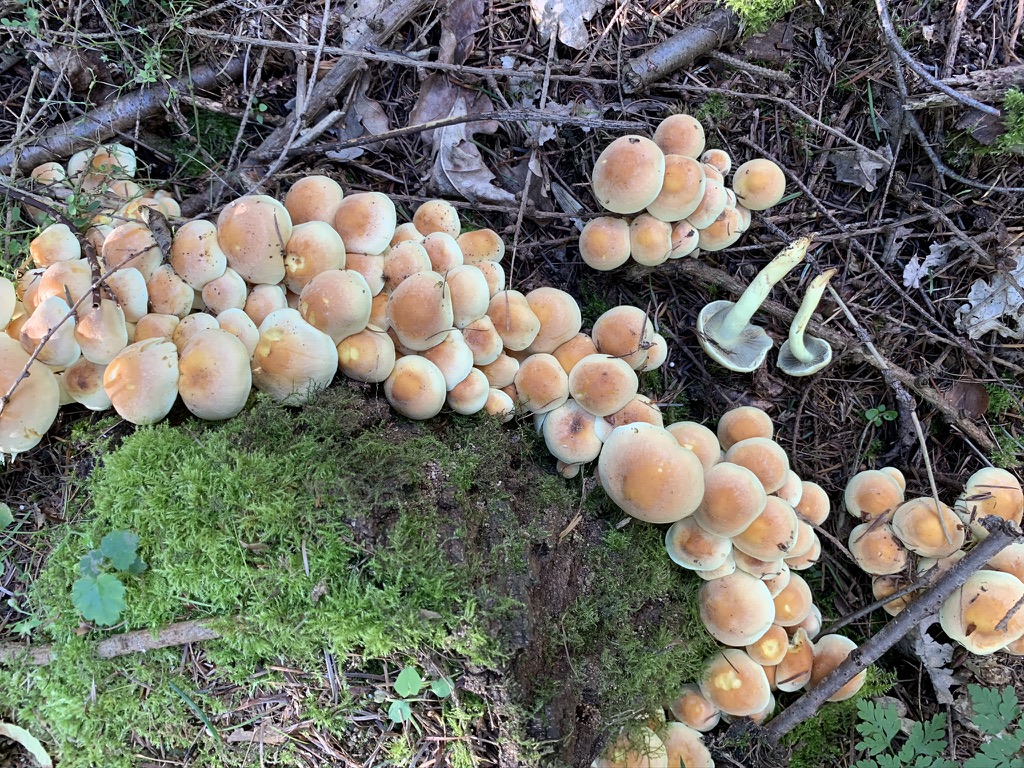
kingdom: Fungi
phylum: Basidiomycota
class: Agaricomycetes
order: Agaricales
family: Strophariaceae
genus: Hypholoma
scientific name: Hypholoma fasciculare
